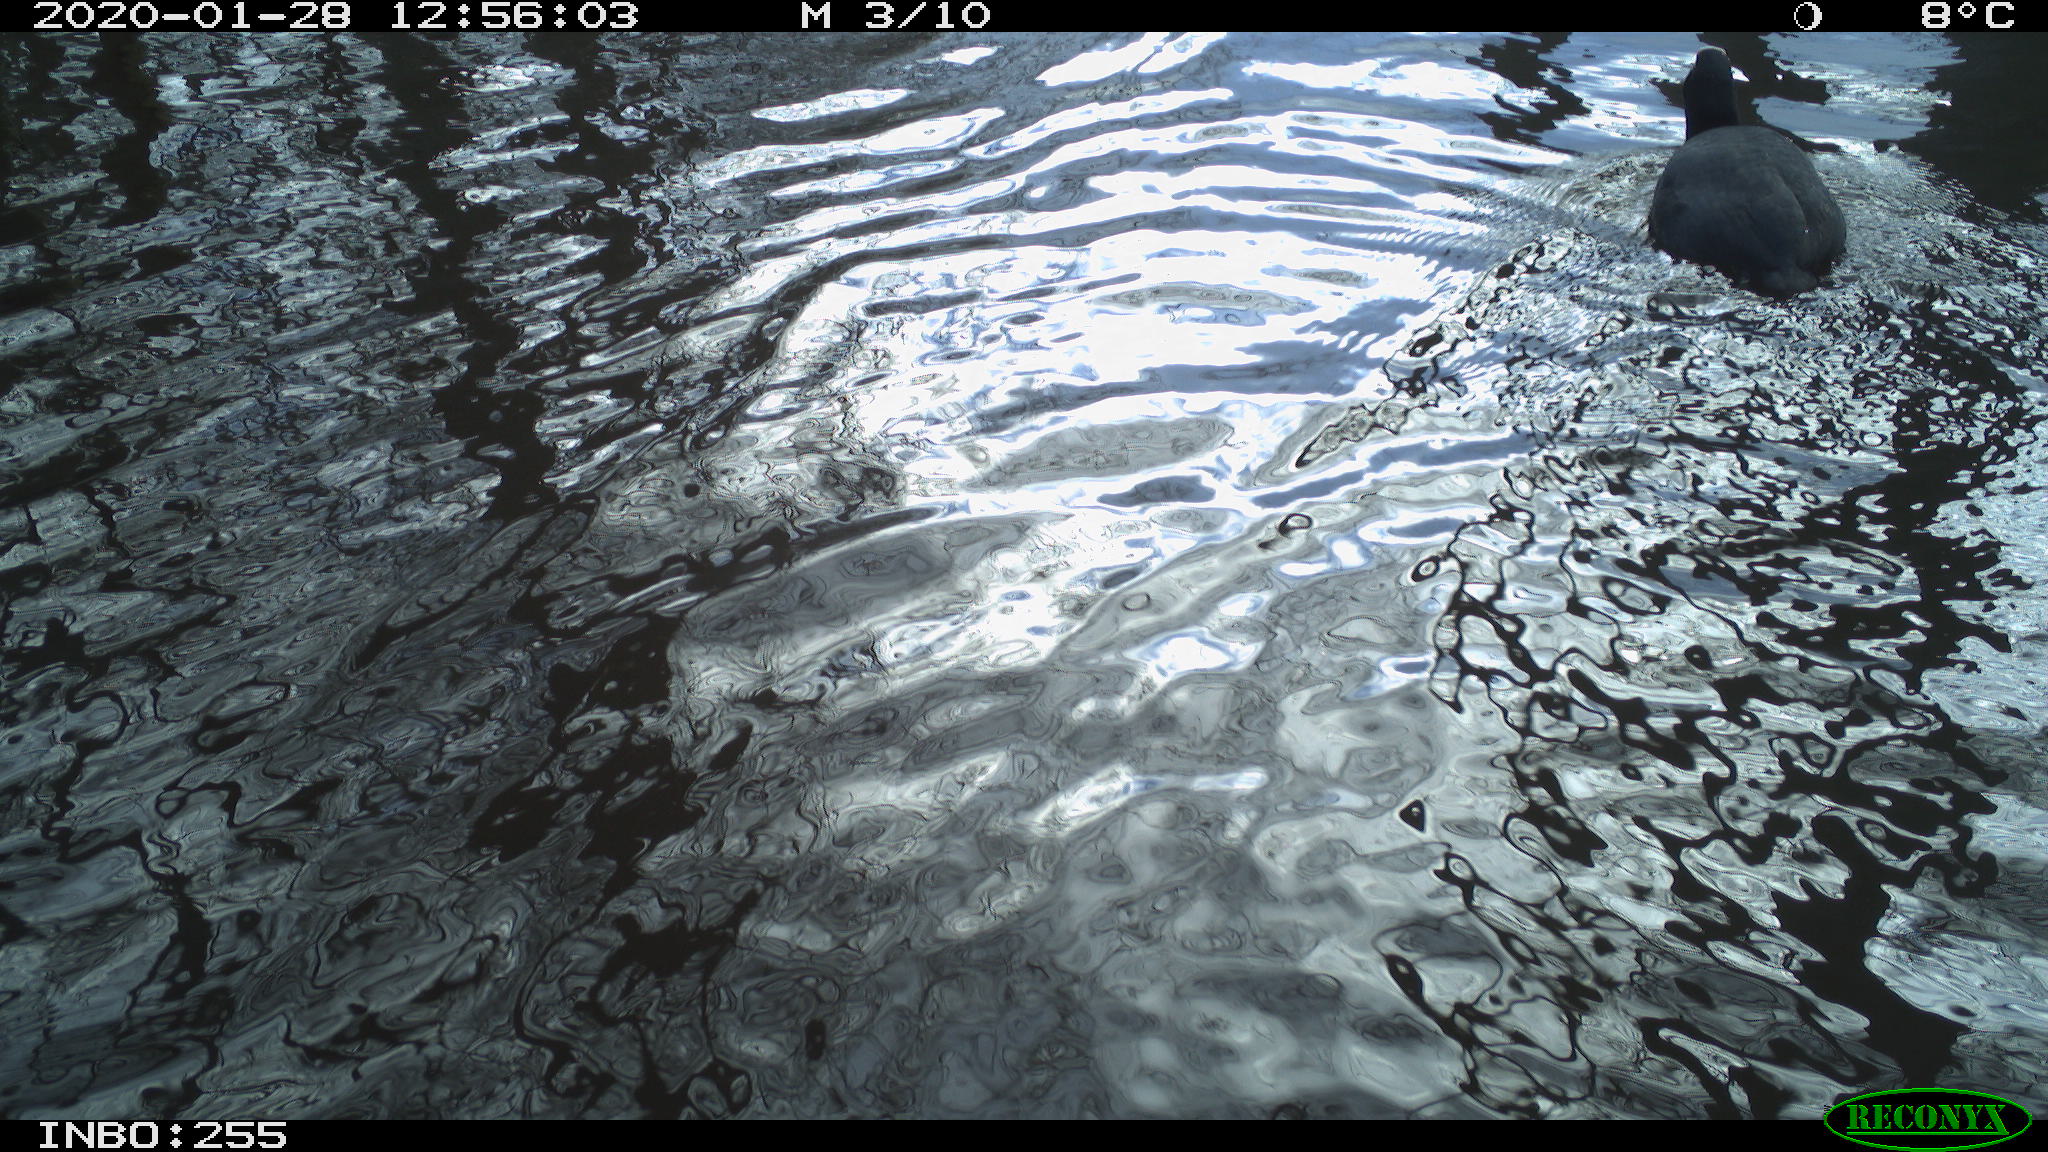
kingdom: Animalia
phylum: Chordata
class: Aves
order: Gruiformes
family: Rallidae
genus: Fulica
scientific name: Fulica atra
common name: Eurasian coot
